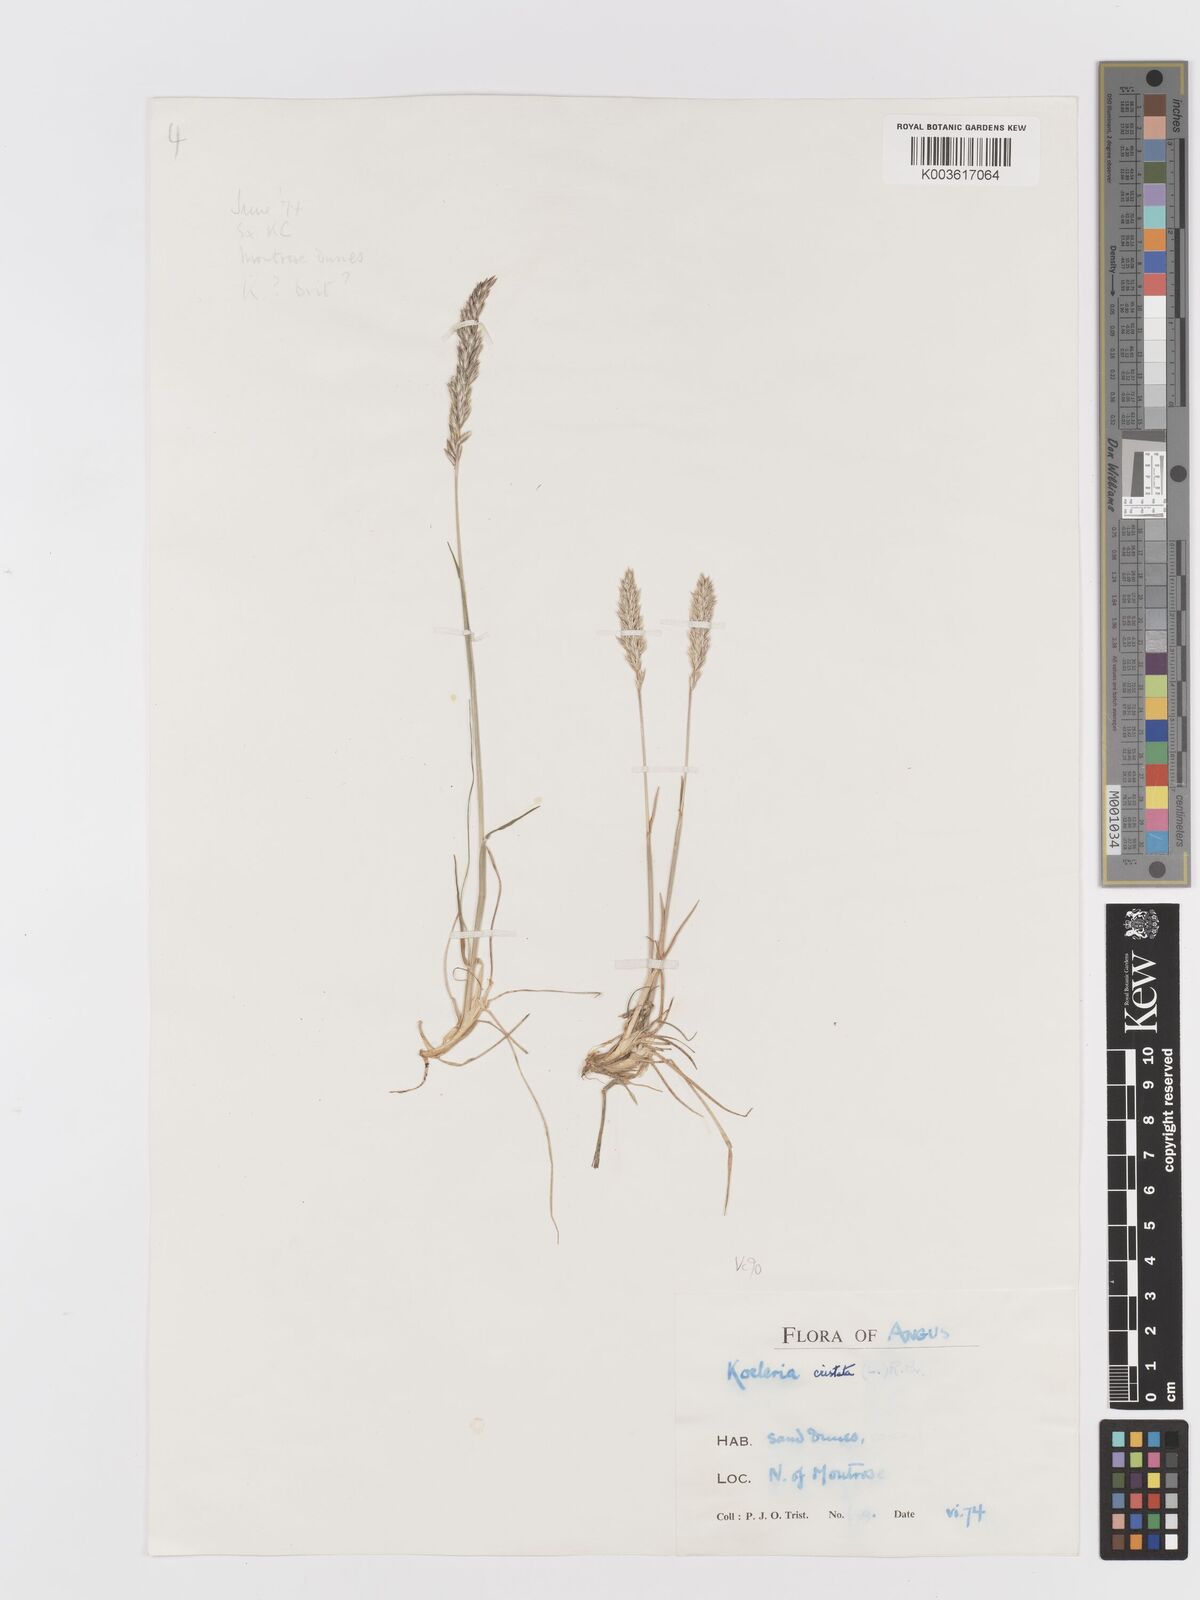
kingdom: Plantae
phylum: Tracheophyta
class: Liliopsida
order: Poales
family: Poaceae
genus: Koeleria
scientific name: Koeleria macrantha
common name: Crested hair-grass
